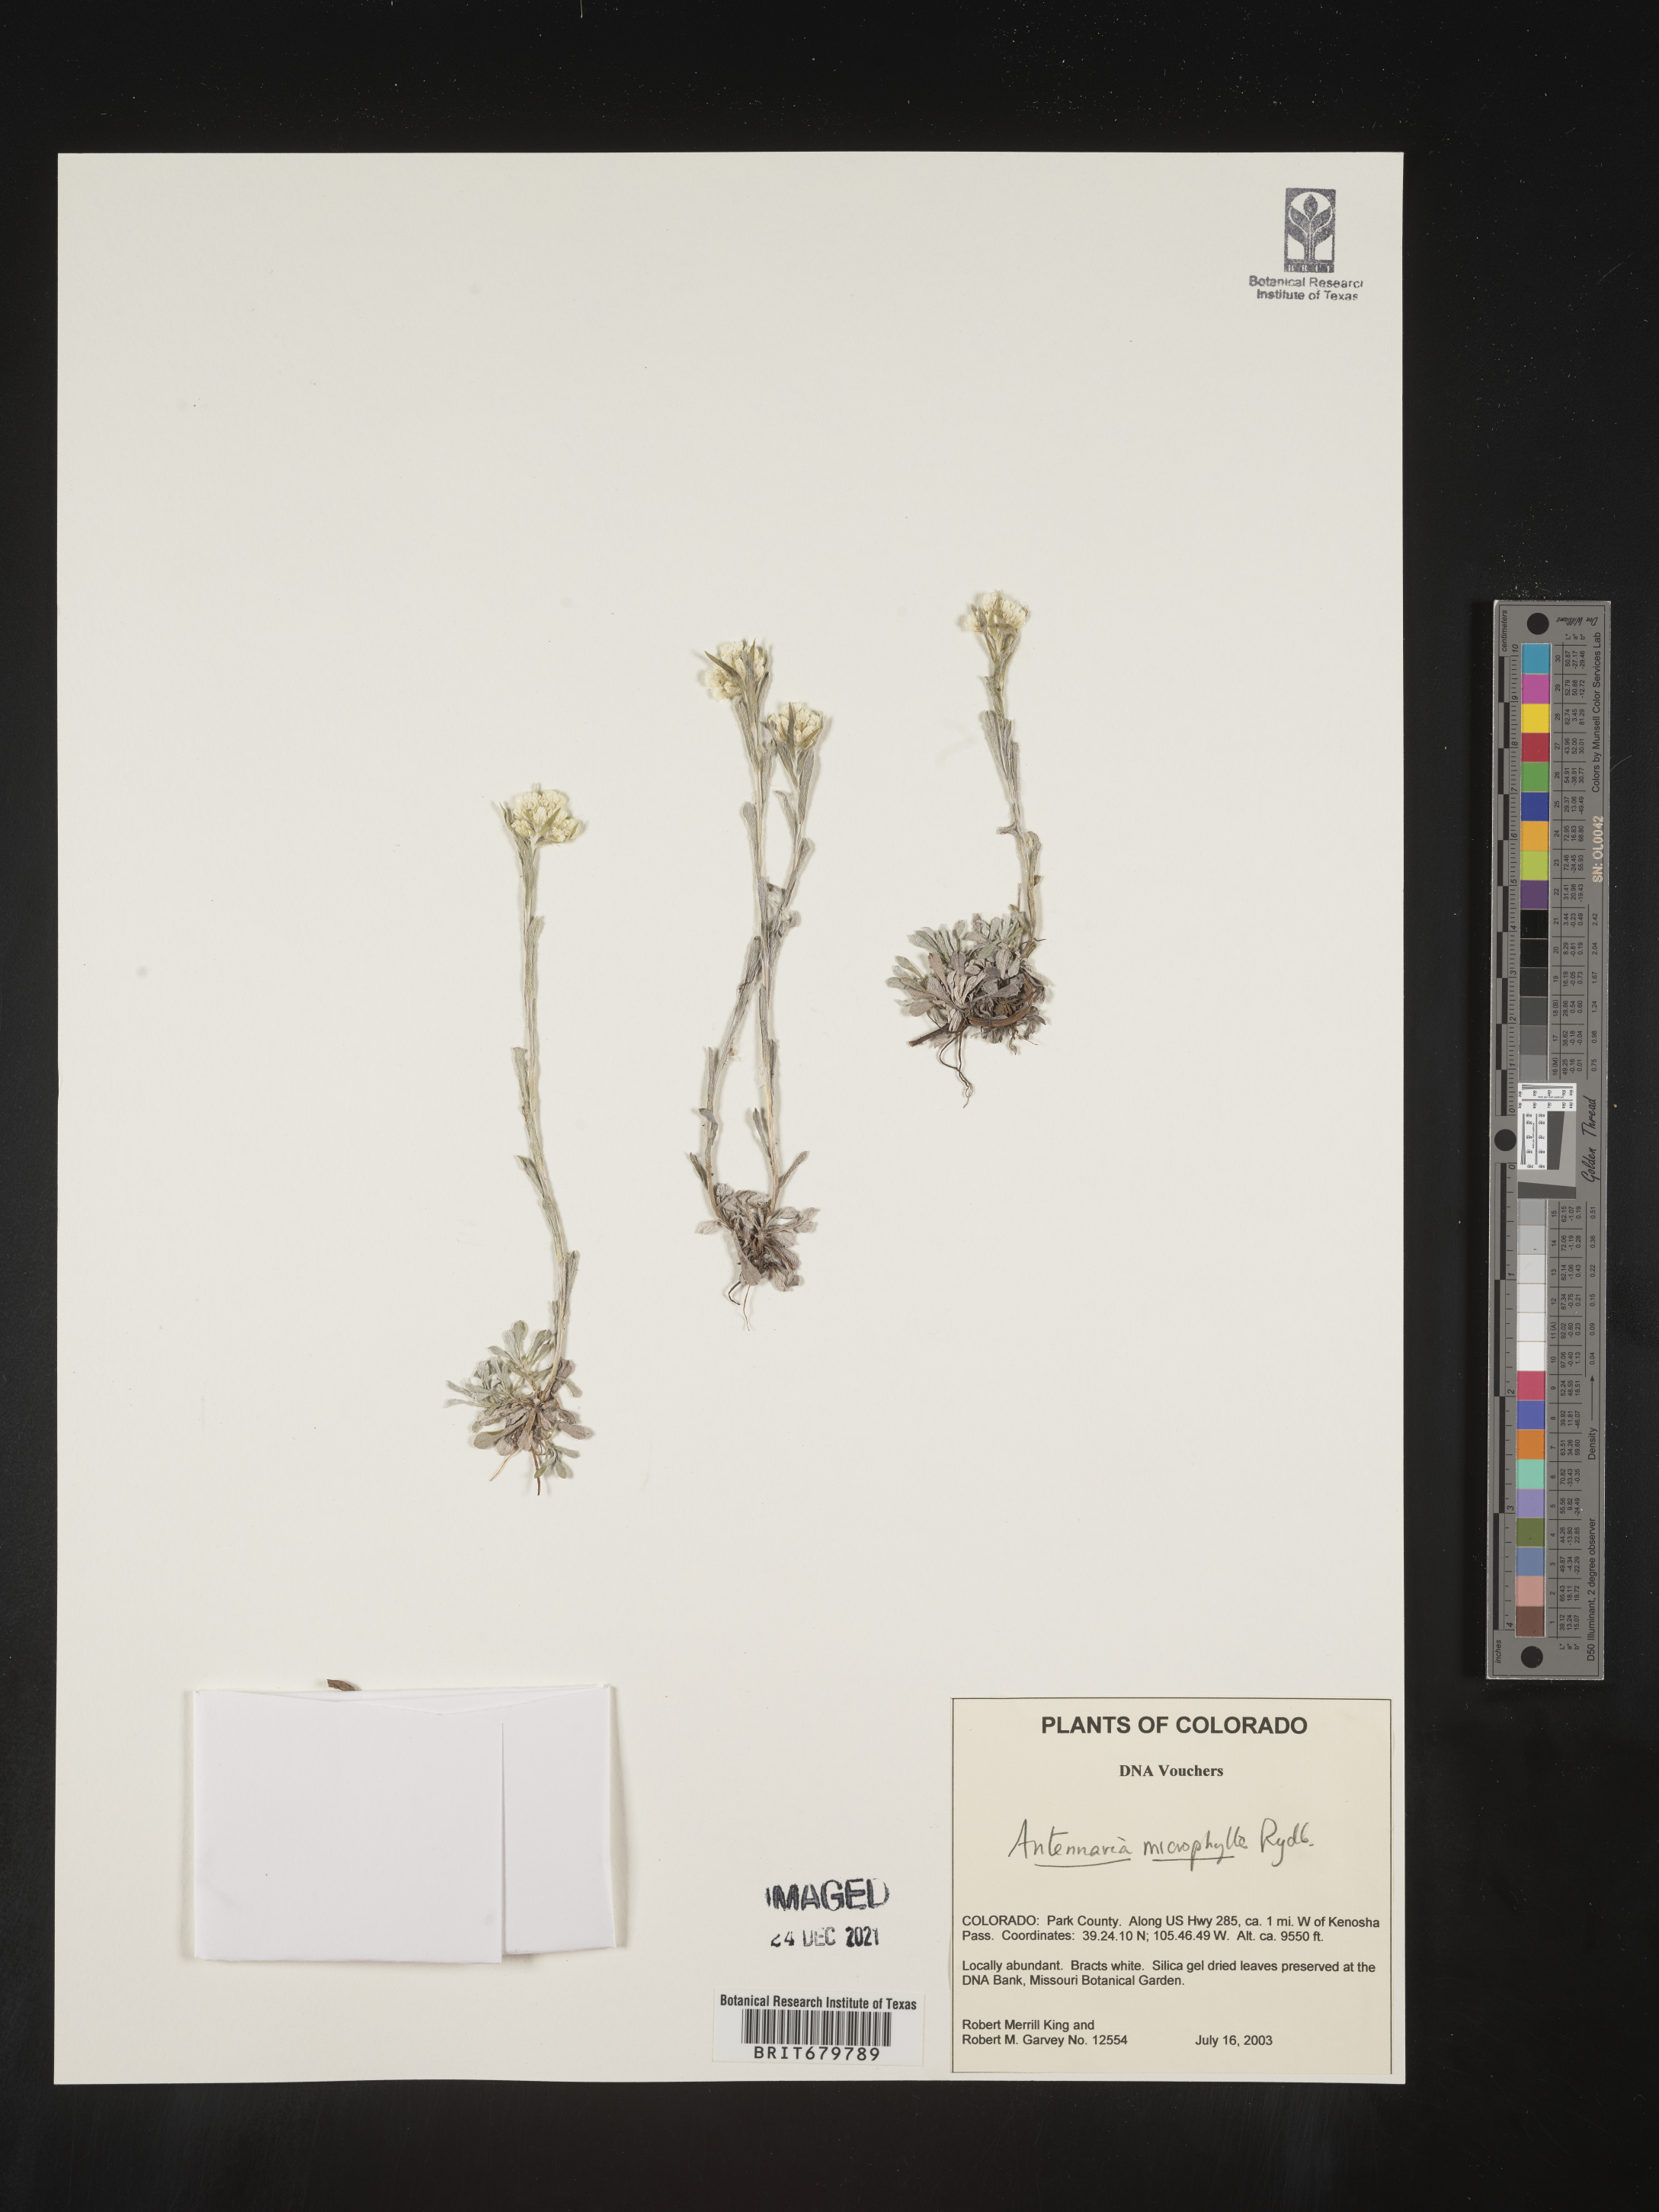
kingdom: Plantae
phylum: Tracheophyta
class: Magnoliopsida
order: Asterales
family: Asteraceae
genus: Antennaria
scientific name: Antennaria microphylla
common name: Littleleaf pussytoes
